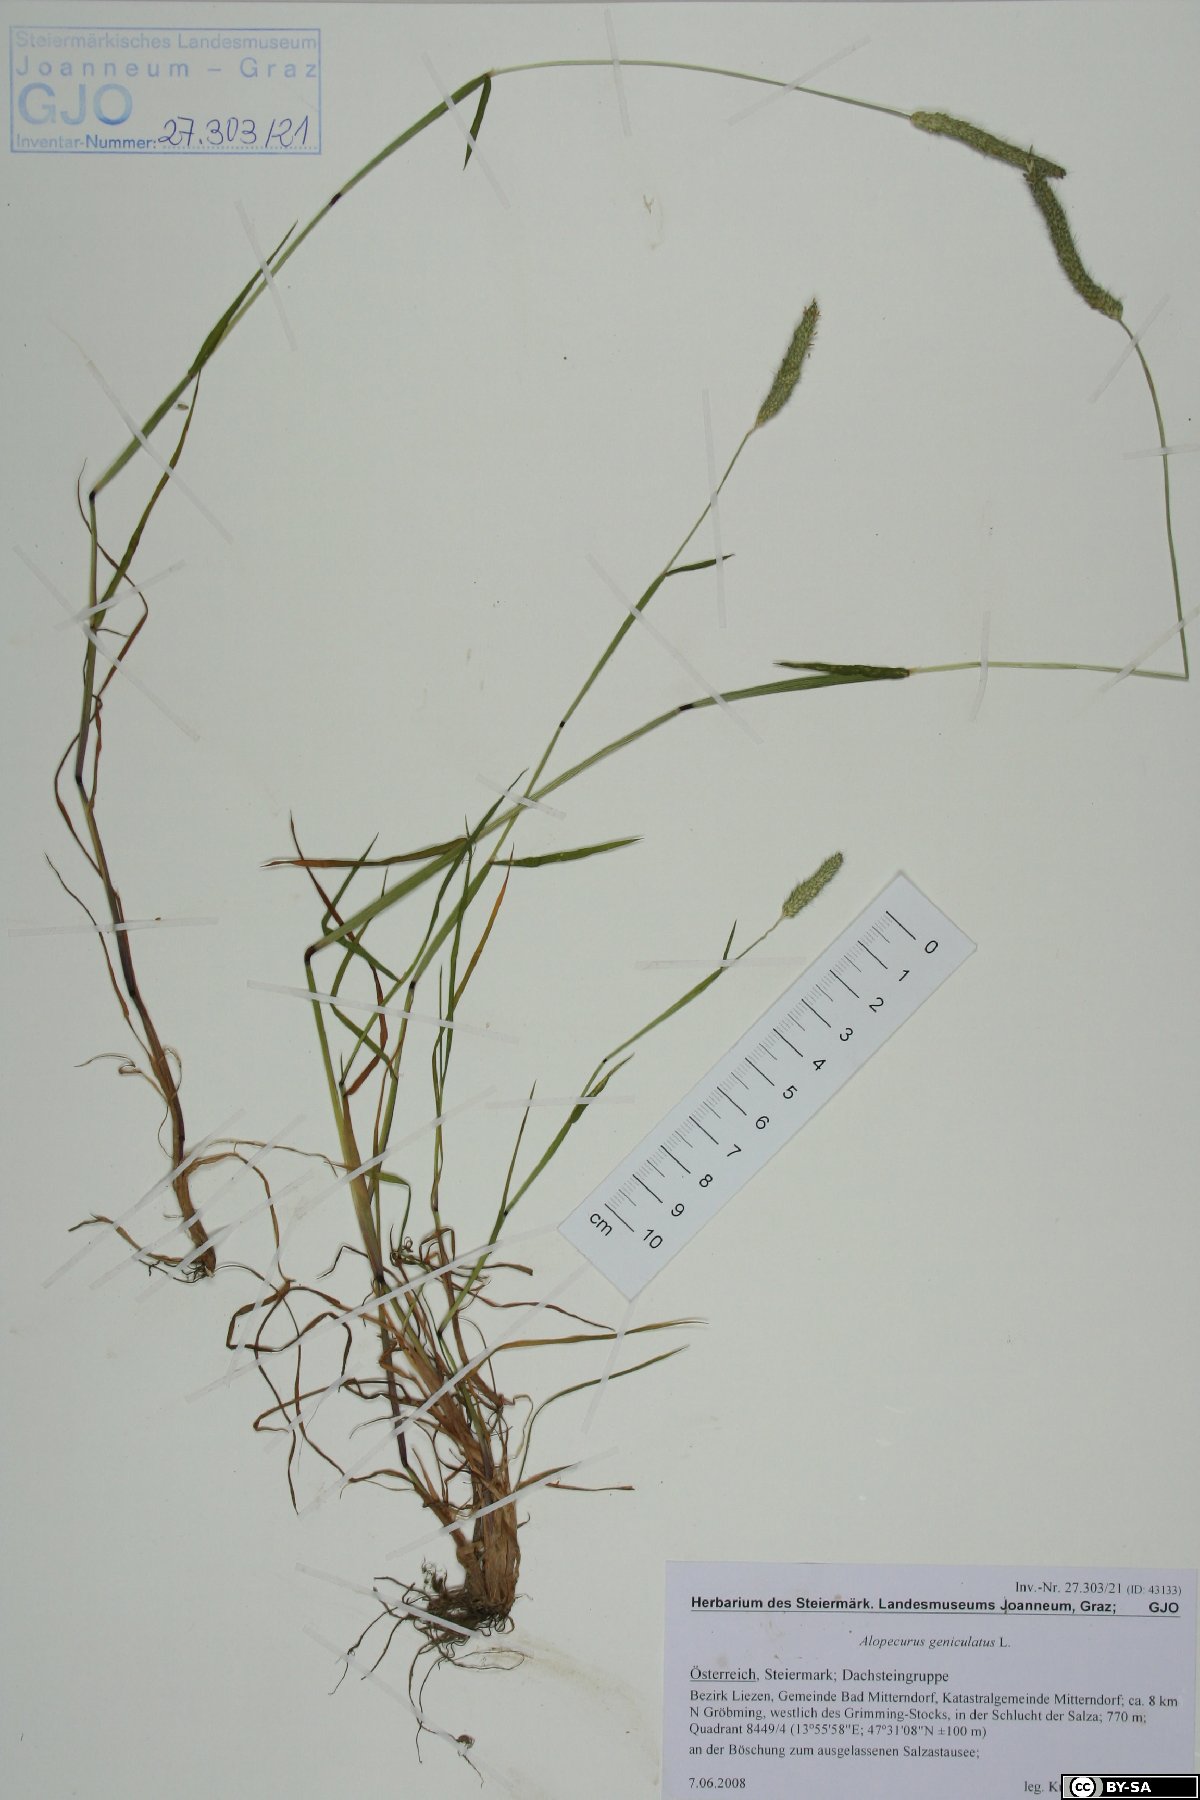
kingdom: Plantae
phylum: Tracheophyta
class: Liliopsida
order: Poales
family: Poaceae
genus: Alopecurus
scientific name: Alopecurus geniculatus
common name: Water foxtail
